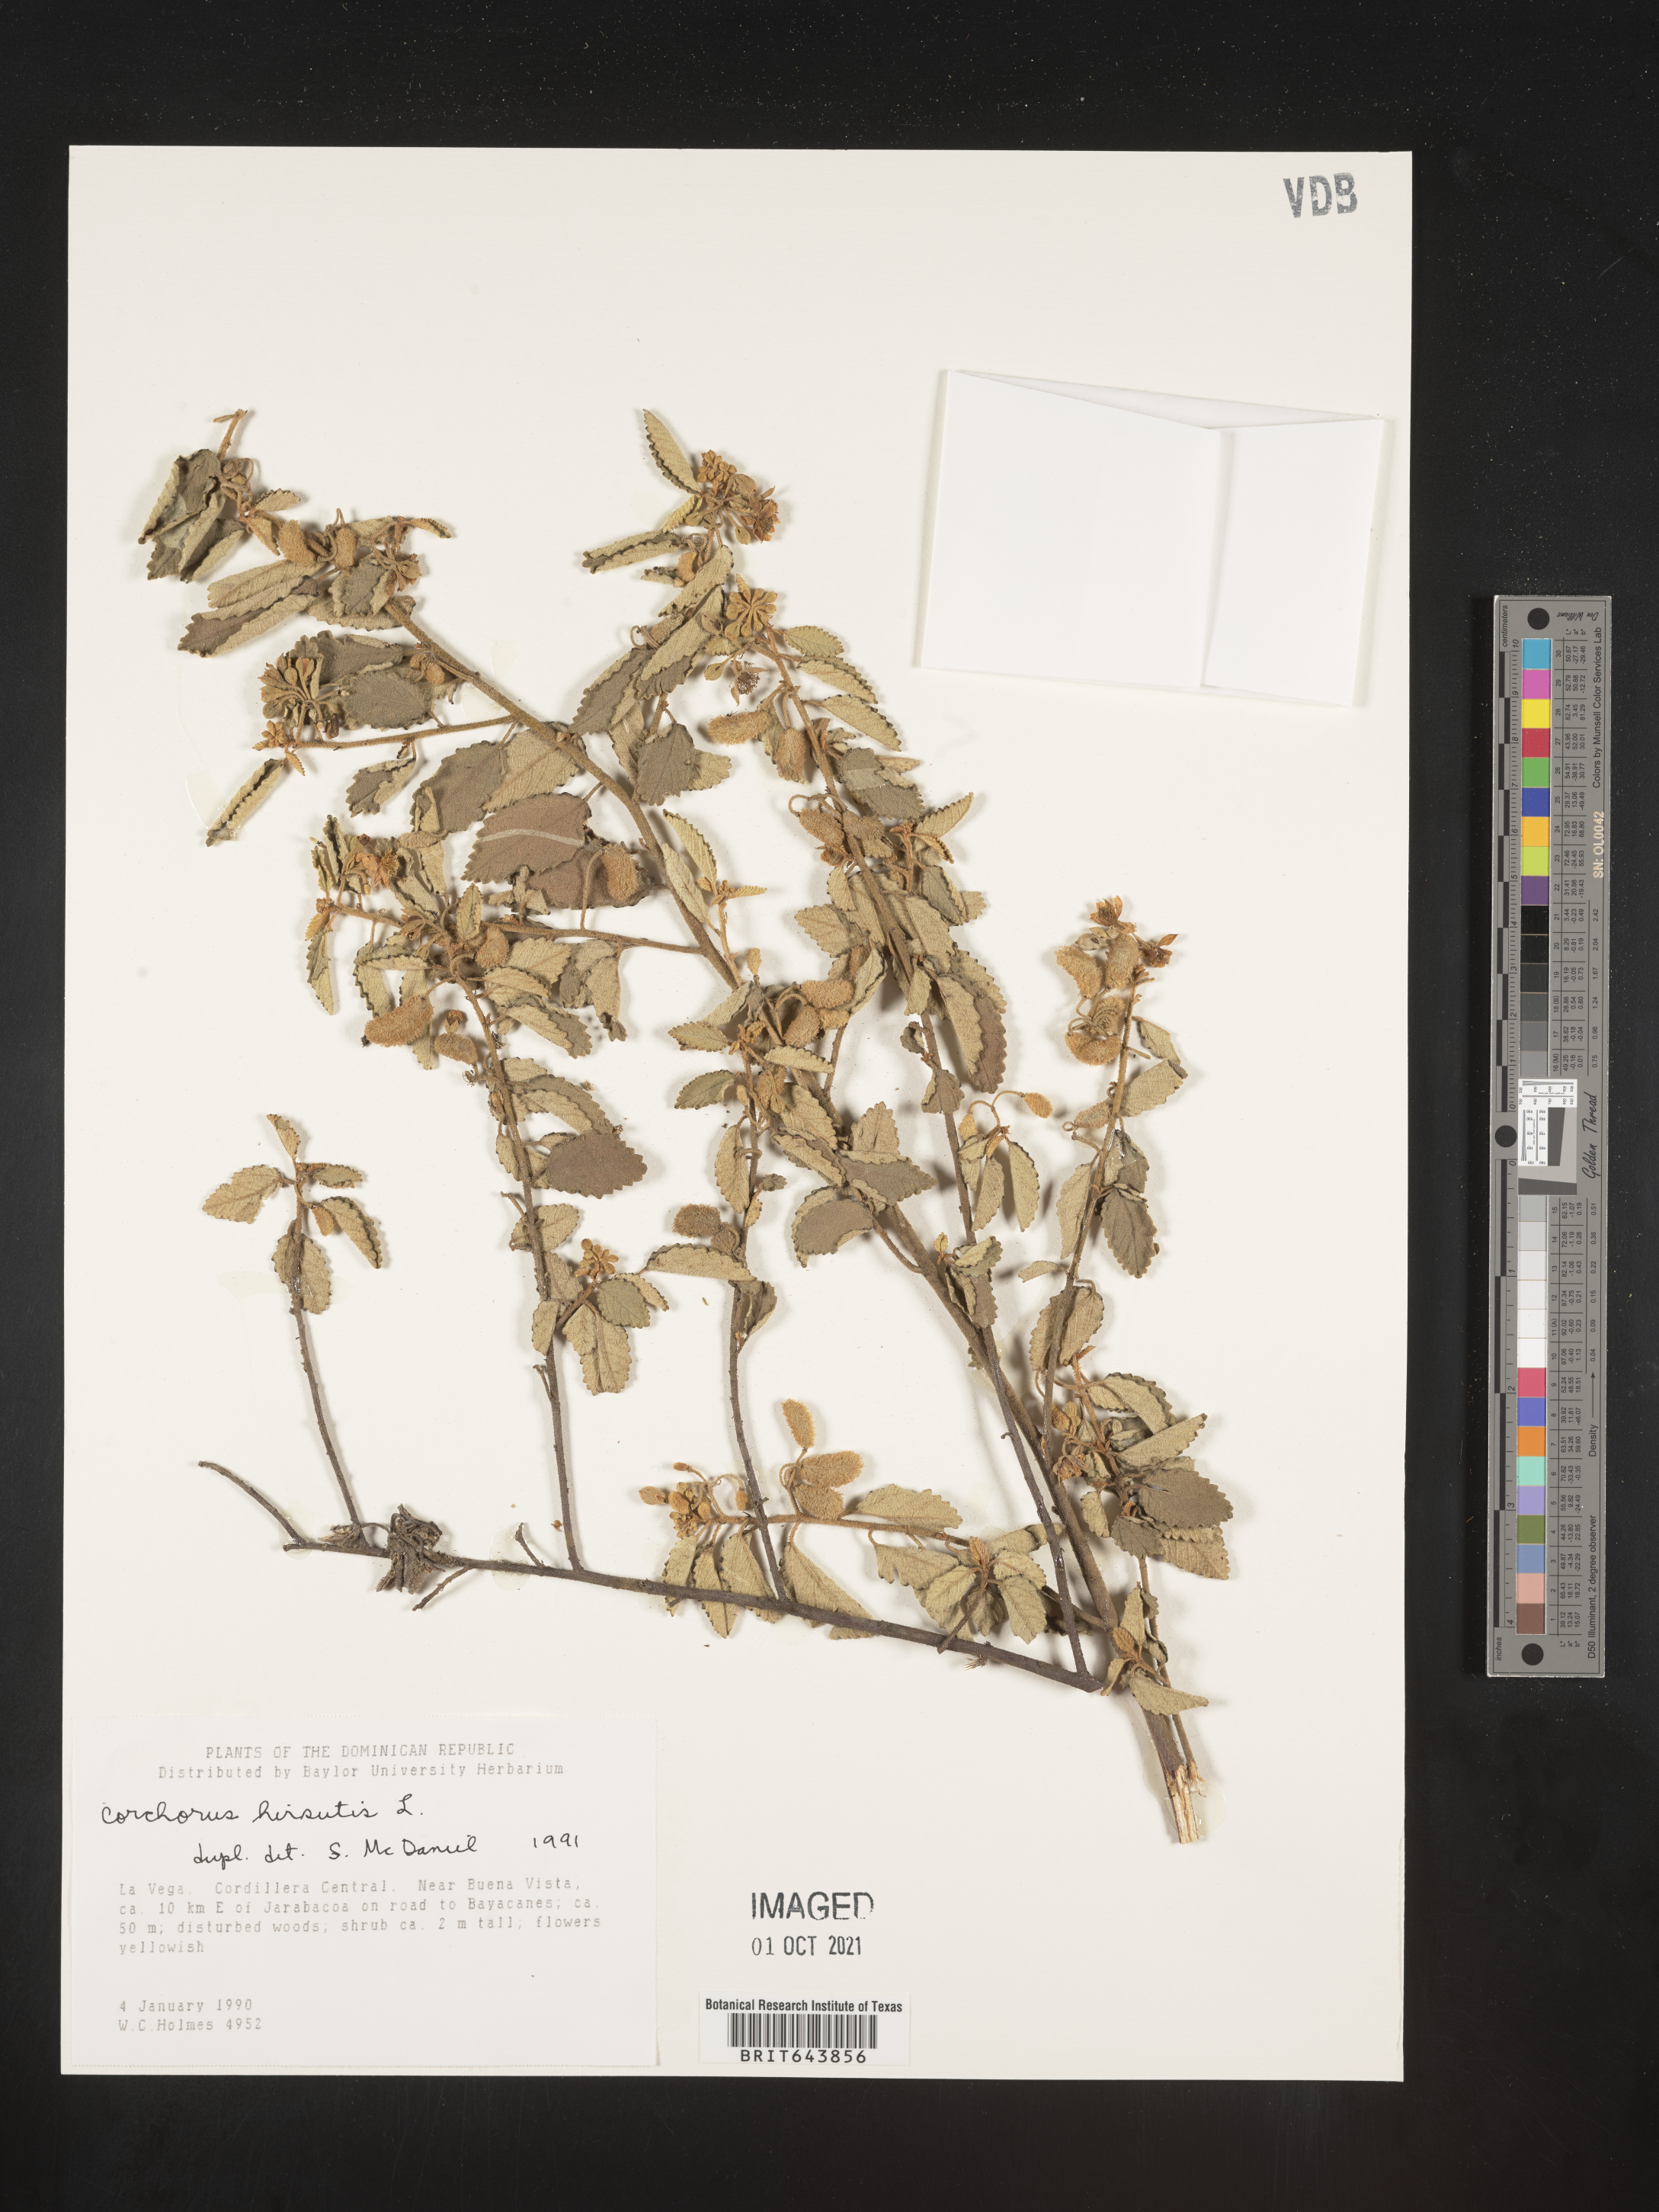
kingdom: Plantae
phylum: Tracheophyta
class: Magnoliopsida
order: Malvales
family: Malvaceae
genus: Corchorus
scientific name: Corchorus
